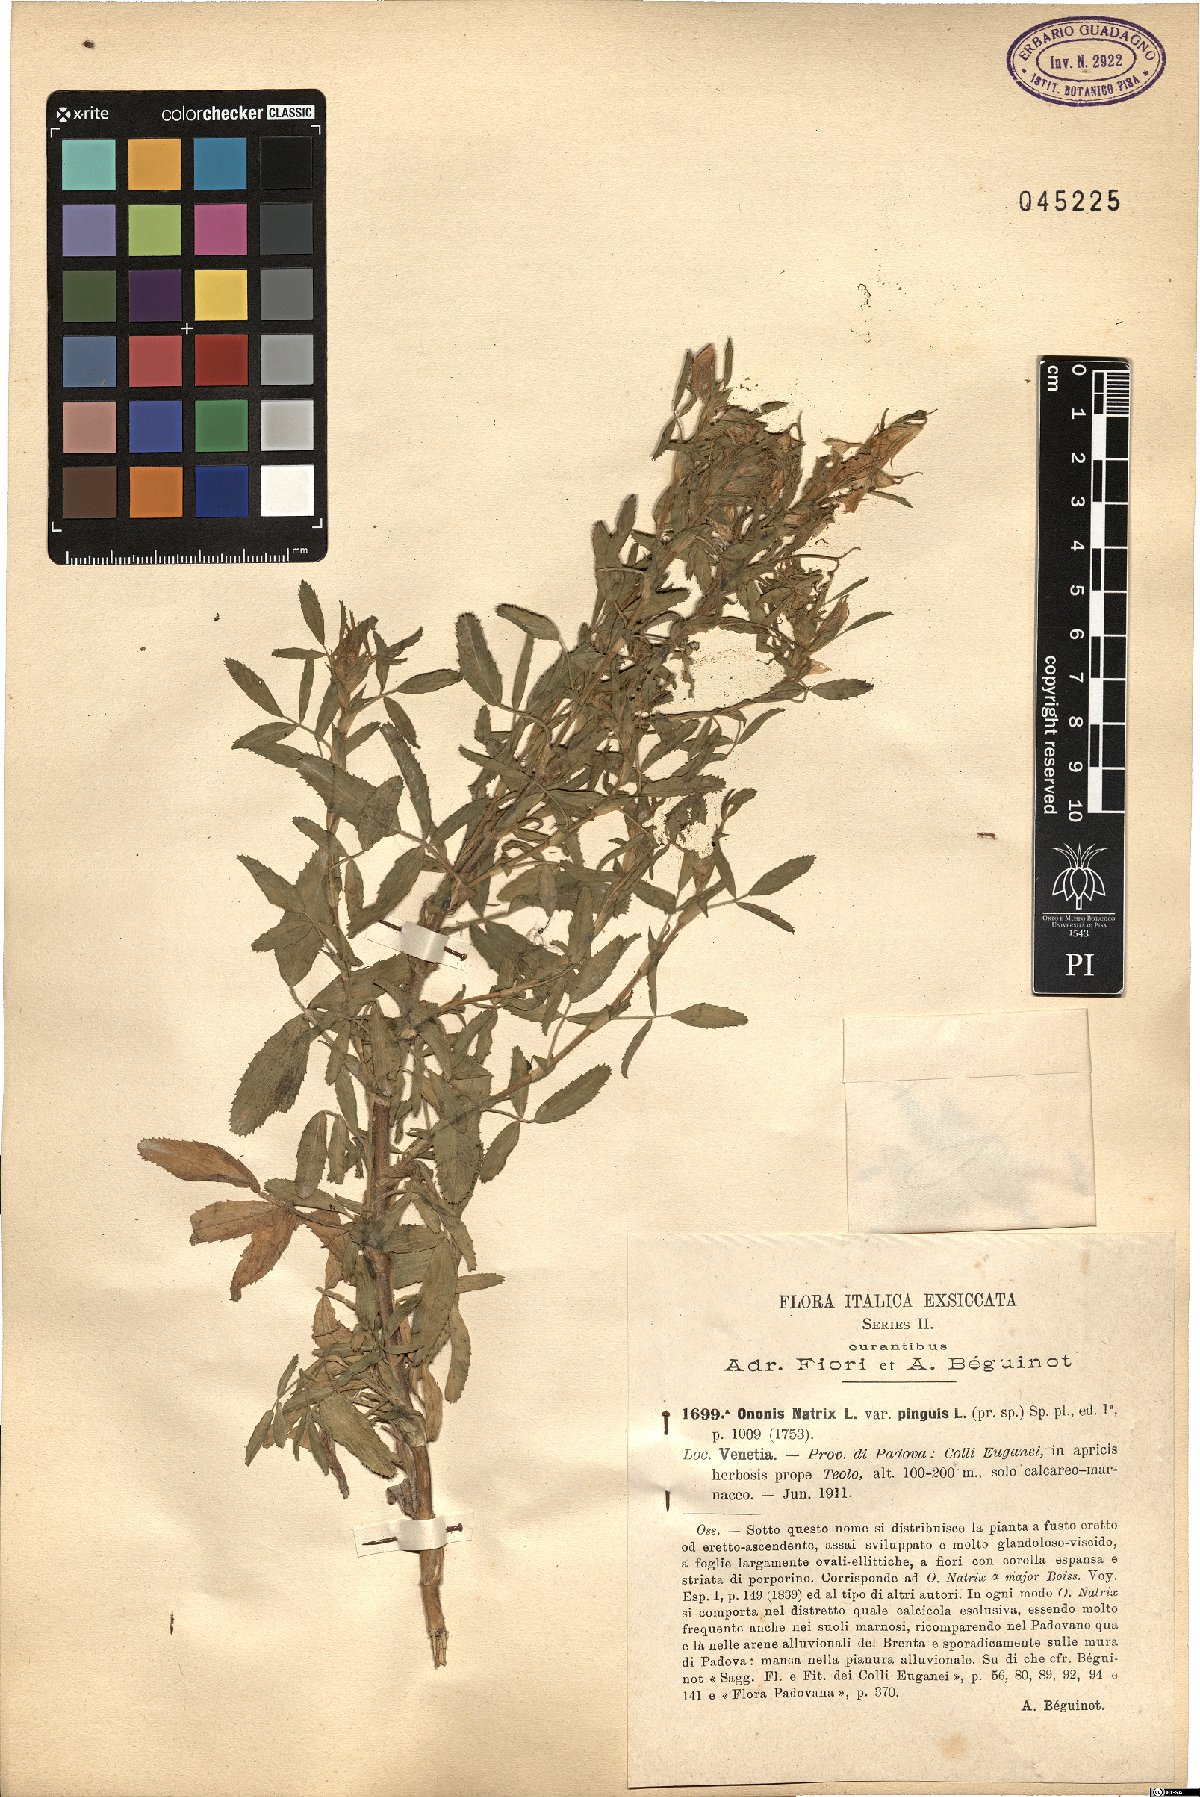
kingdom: Plantae
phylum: Tracheophyta
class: Magnoliopsida
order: Fabales
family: Fabaceae
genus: Ononis
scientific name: Ononis natrix
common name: Yellow restharrow
